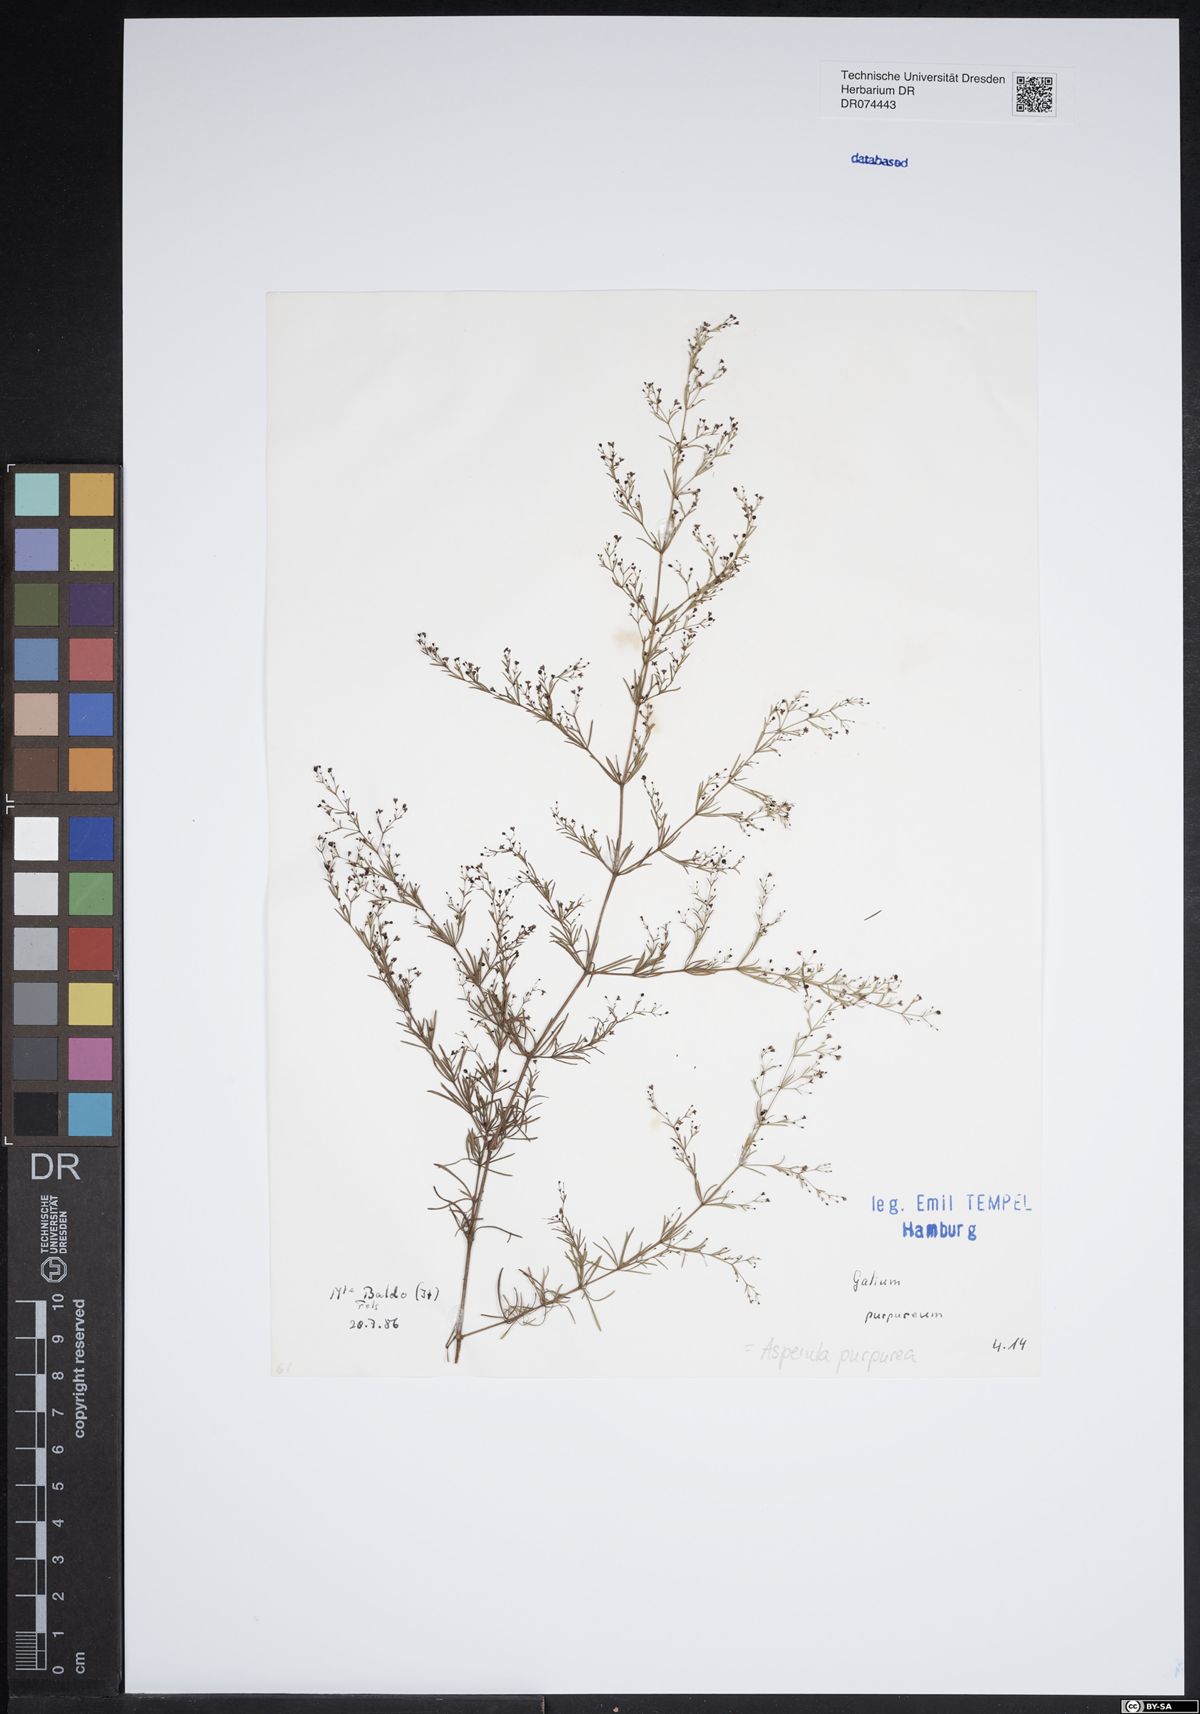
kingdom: Plantae
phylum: Tracheophyta
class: Magnoliopsida
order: Gentianales
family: Rubiaceae
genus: Thliphthisa
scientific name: Thliphthisa purpurea
